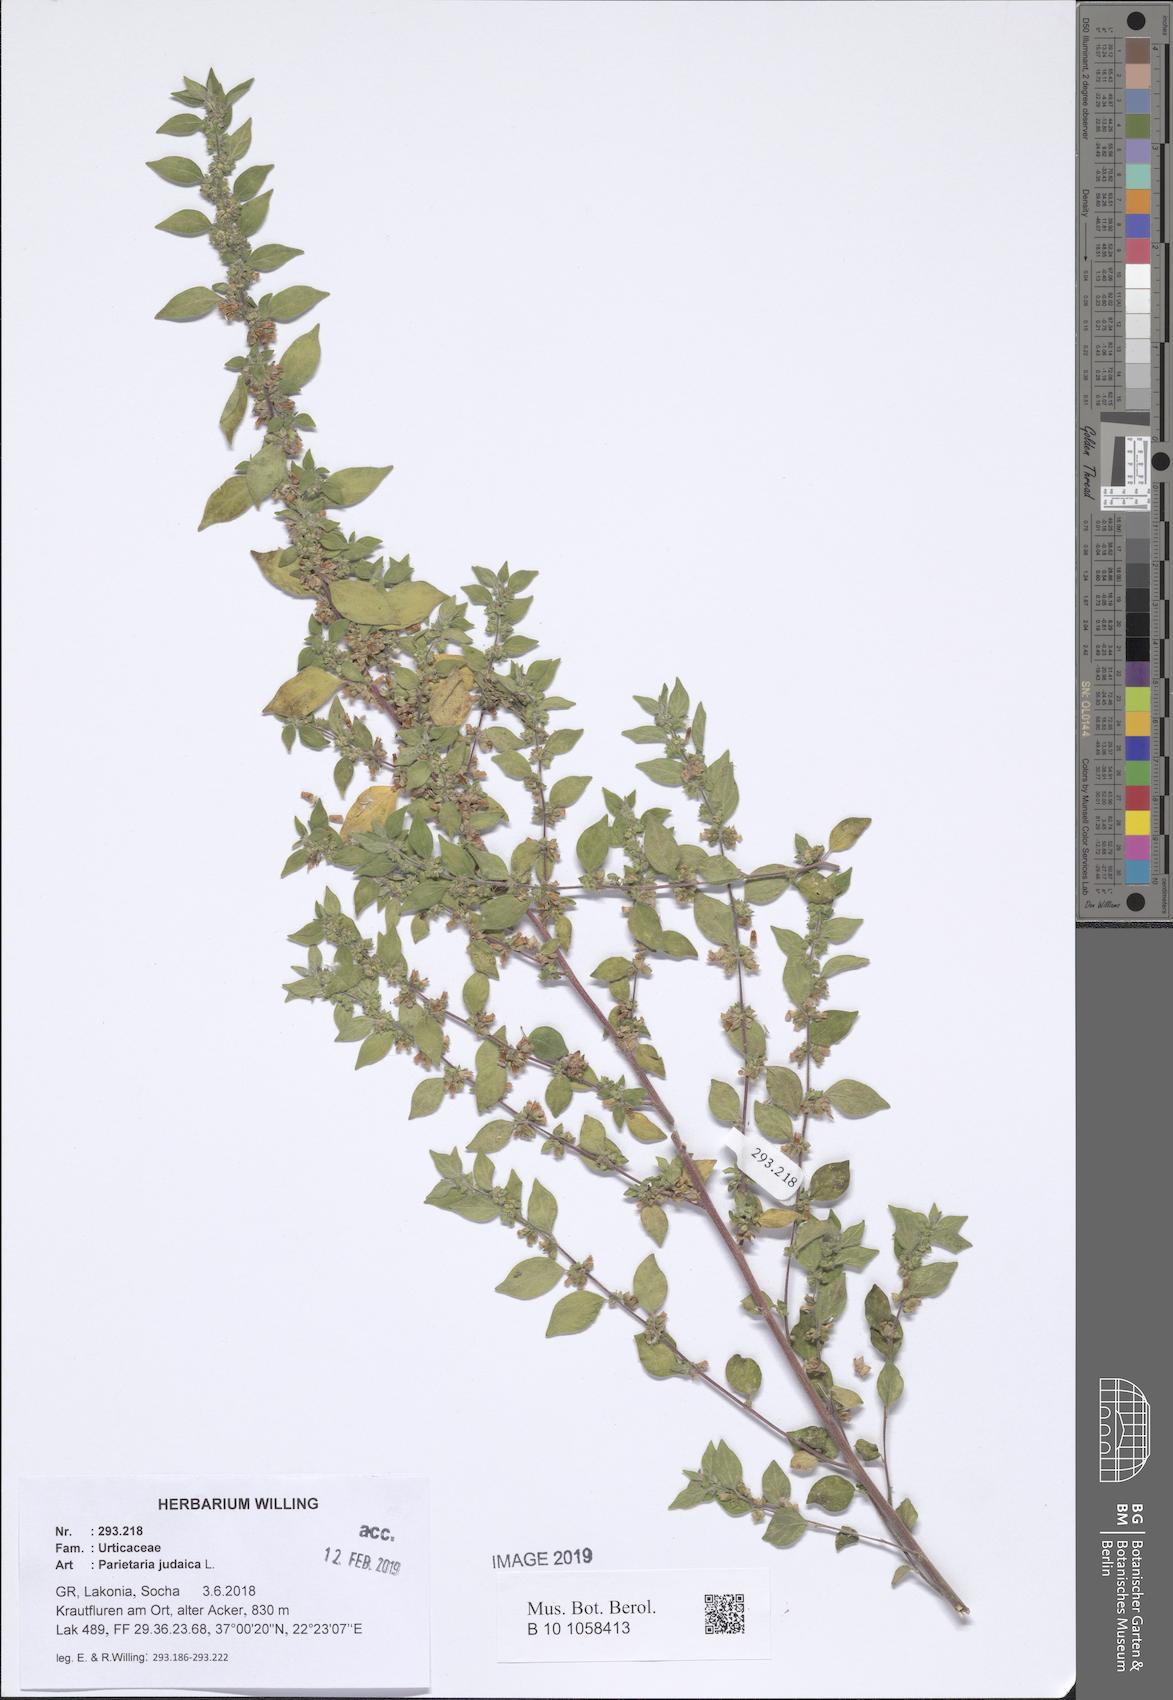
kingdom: Plantae
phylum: Tracheophyta
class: Magnoliopsida
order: Rosales
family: Urticaceae
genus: Parietaria
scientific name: Parietaria judaica
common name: Pellitory-of-the-wall
